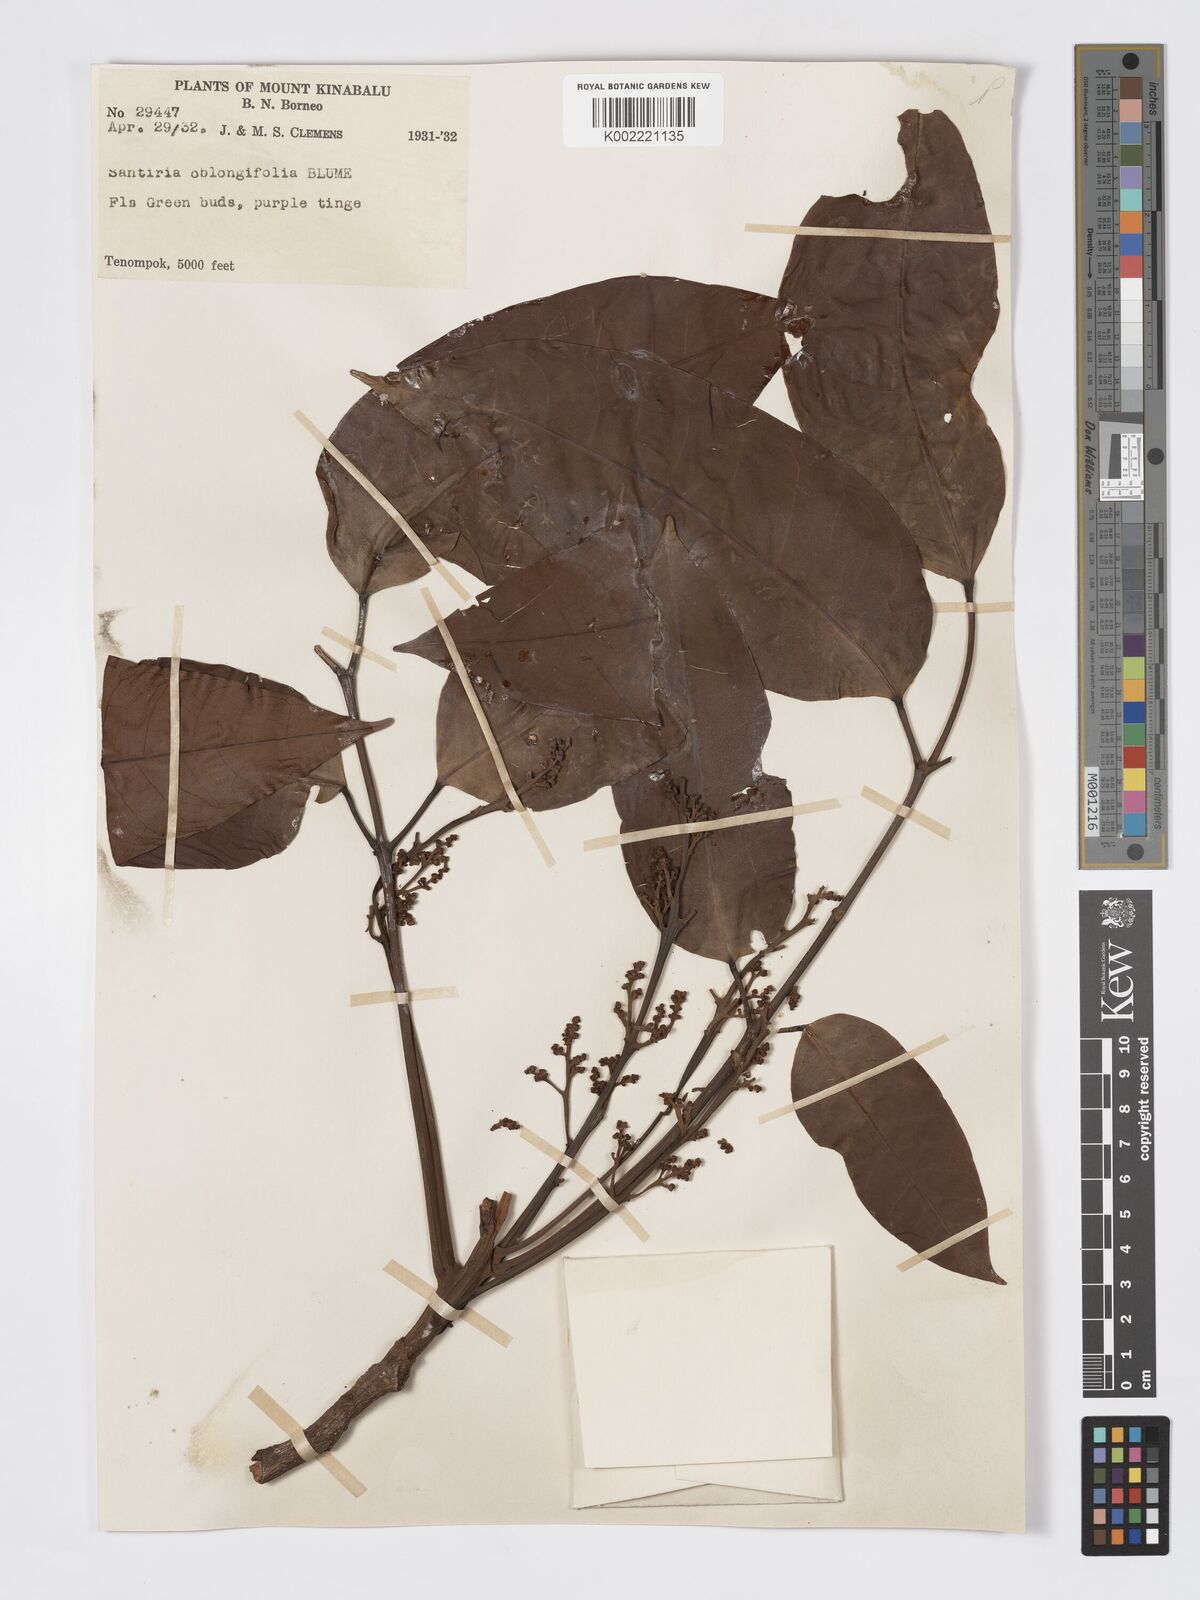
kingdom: Plantae
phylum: Tracheophyta
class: Magnoliopsida
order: Sapindales
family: Burseraceae
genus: Santiria
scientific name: Santiria conferta
